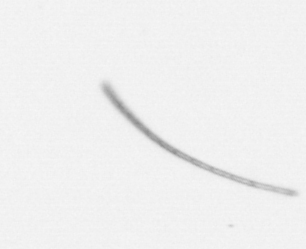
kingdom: Chromista
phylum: Ochrophyta
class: Bacillariophyceae
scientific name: Bacillariophyceae
